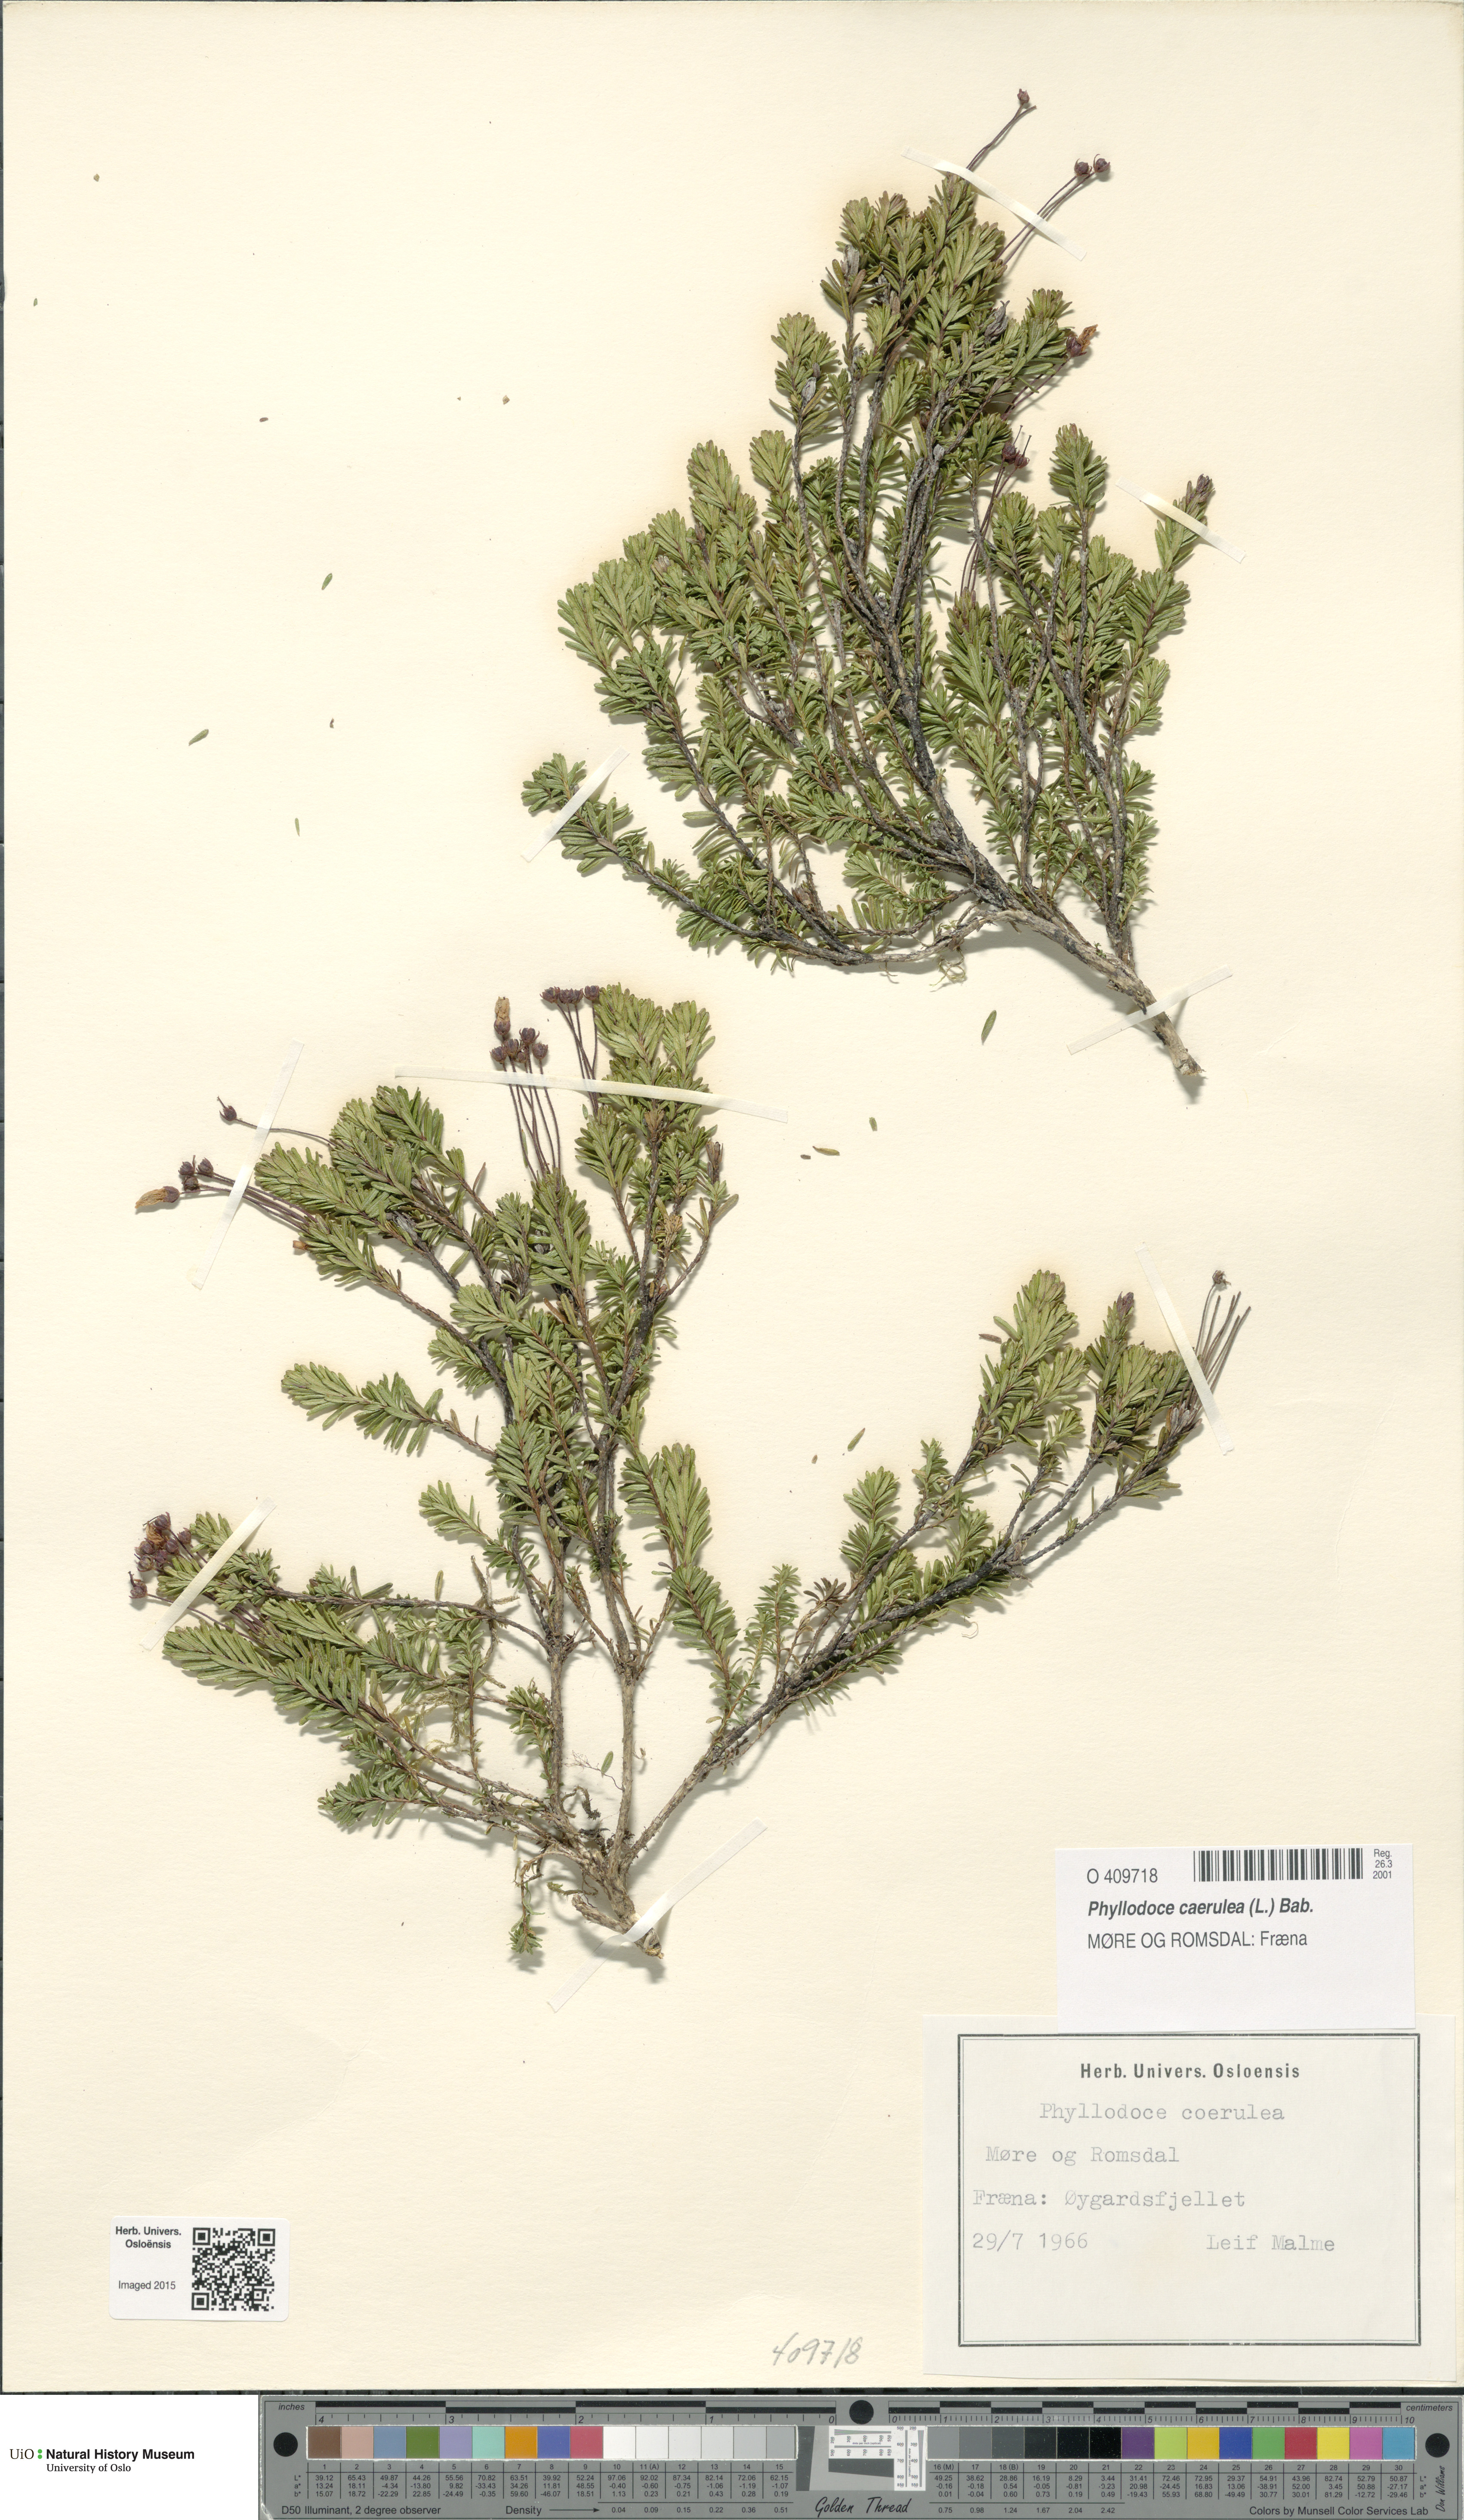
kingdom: Plantae
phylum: Tracheophyta
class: Magnoliopsida
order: Ericales
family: Ericaceae
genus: Phyllodoce
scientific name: Phyllodoce caerulea
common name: Blue heath
